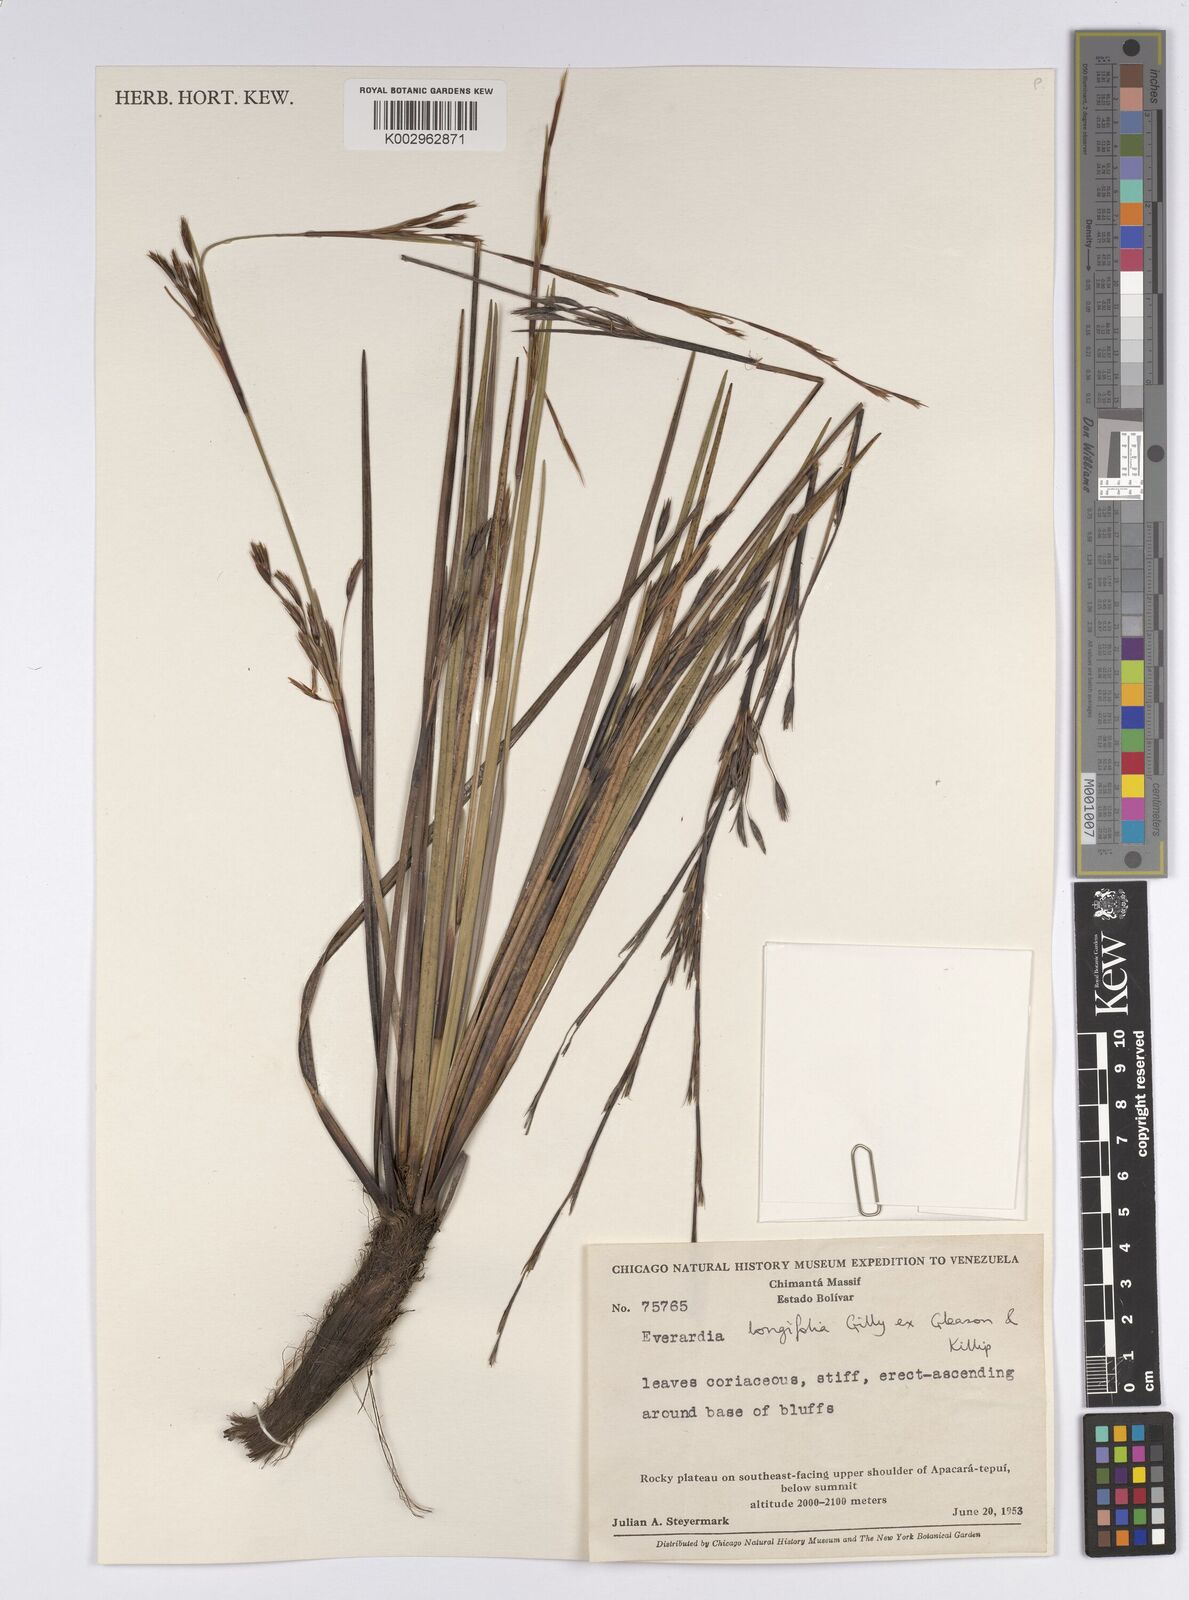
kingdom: Plantae
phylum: Tracheophyta
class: Liliopsida
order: Poales
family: Cyperaceae
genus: Cephalocarpus
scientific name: Cephalocarpus longifolius
